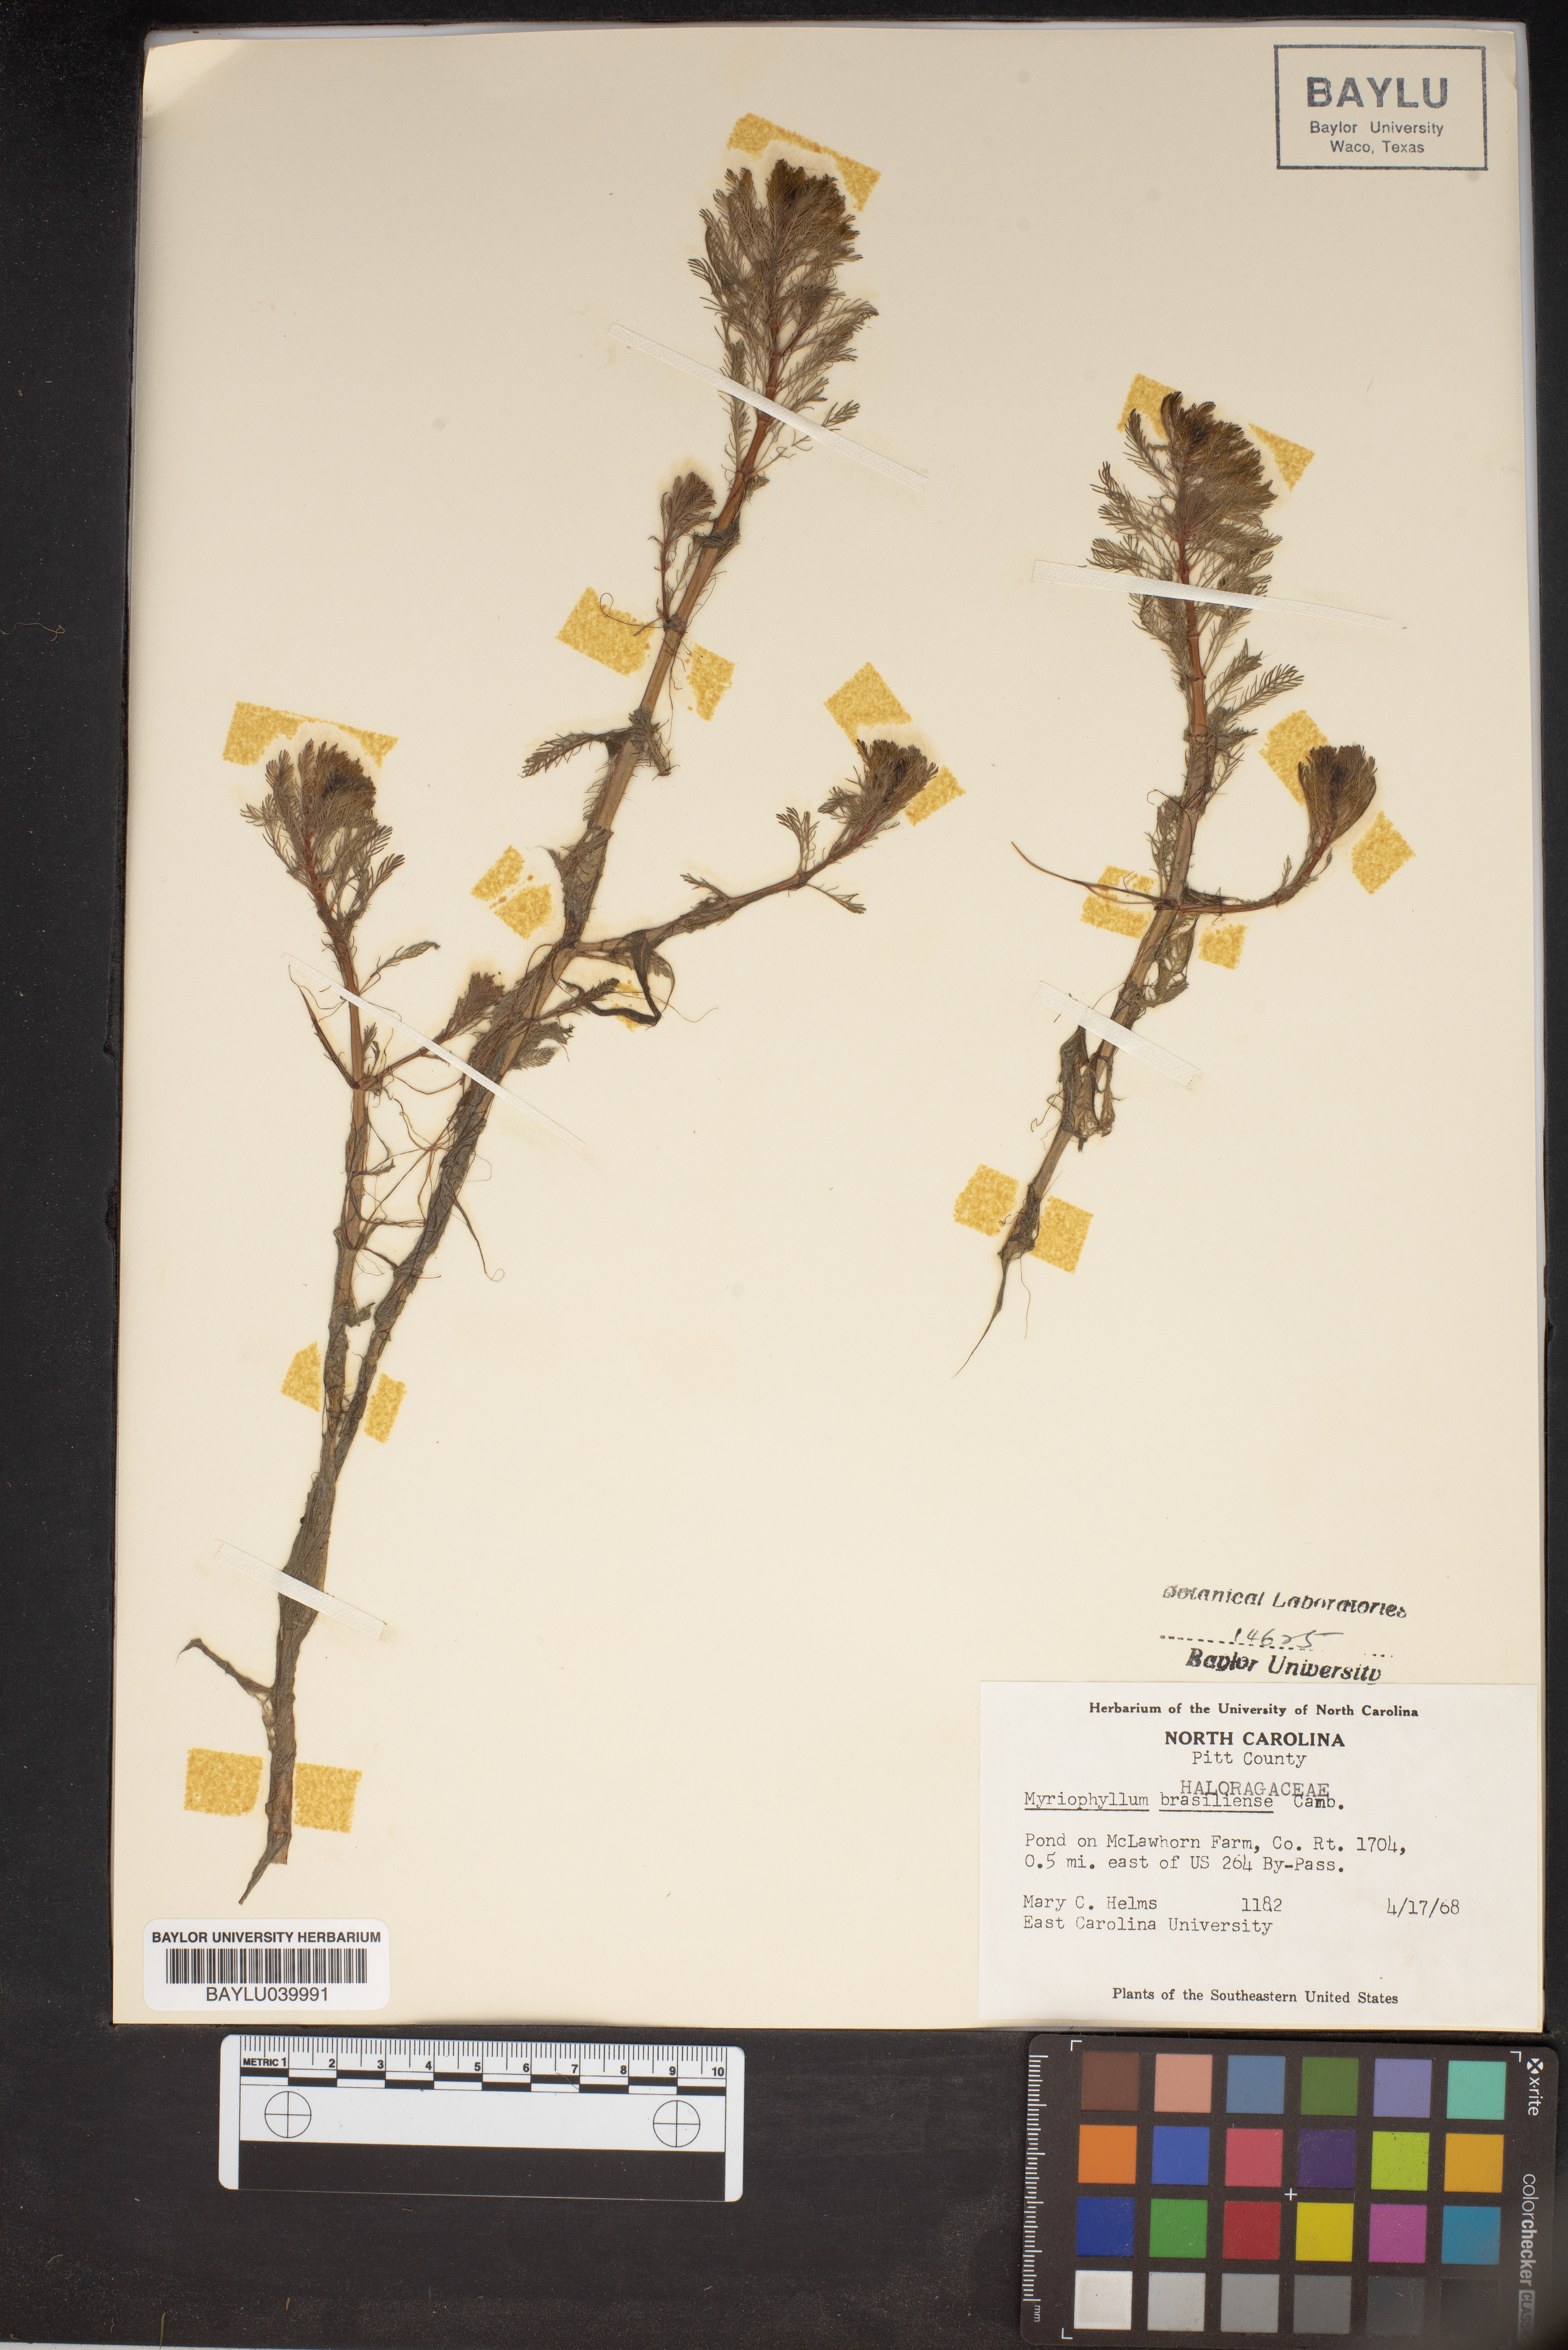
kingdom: Plantae
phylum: Tracheophyta
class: Magnoliopsida
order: Saxifragales
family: Haloragaceae
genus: Myriophyllum
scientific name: Myriophyllum aquaticum
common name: Parrot's feather
